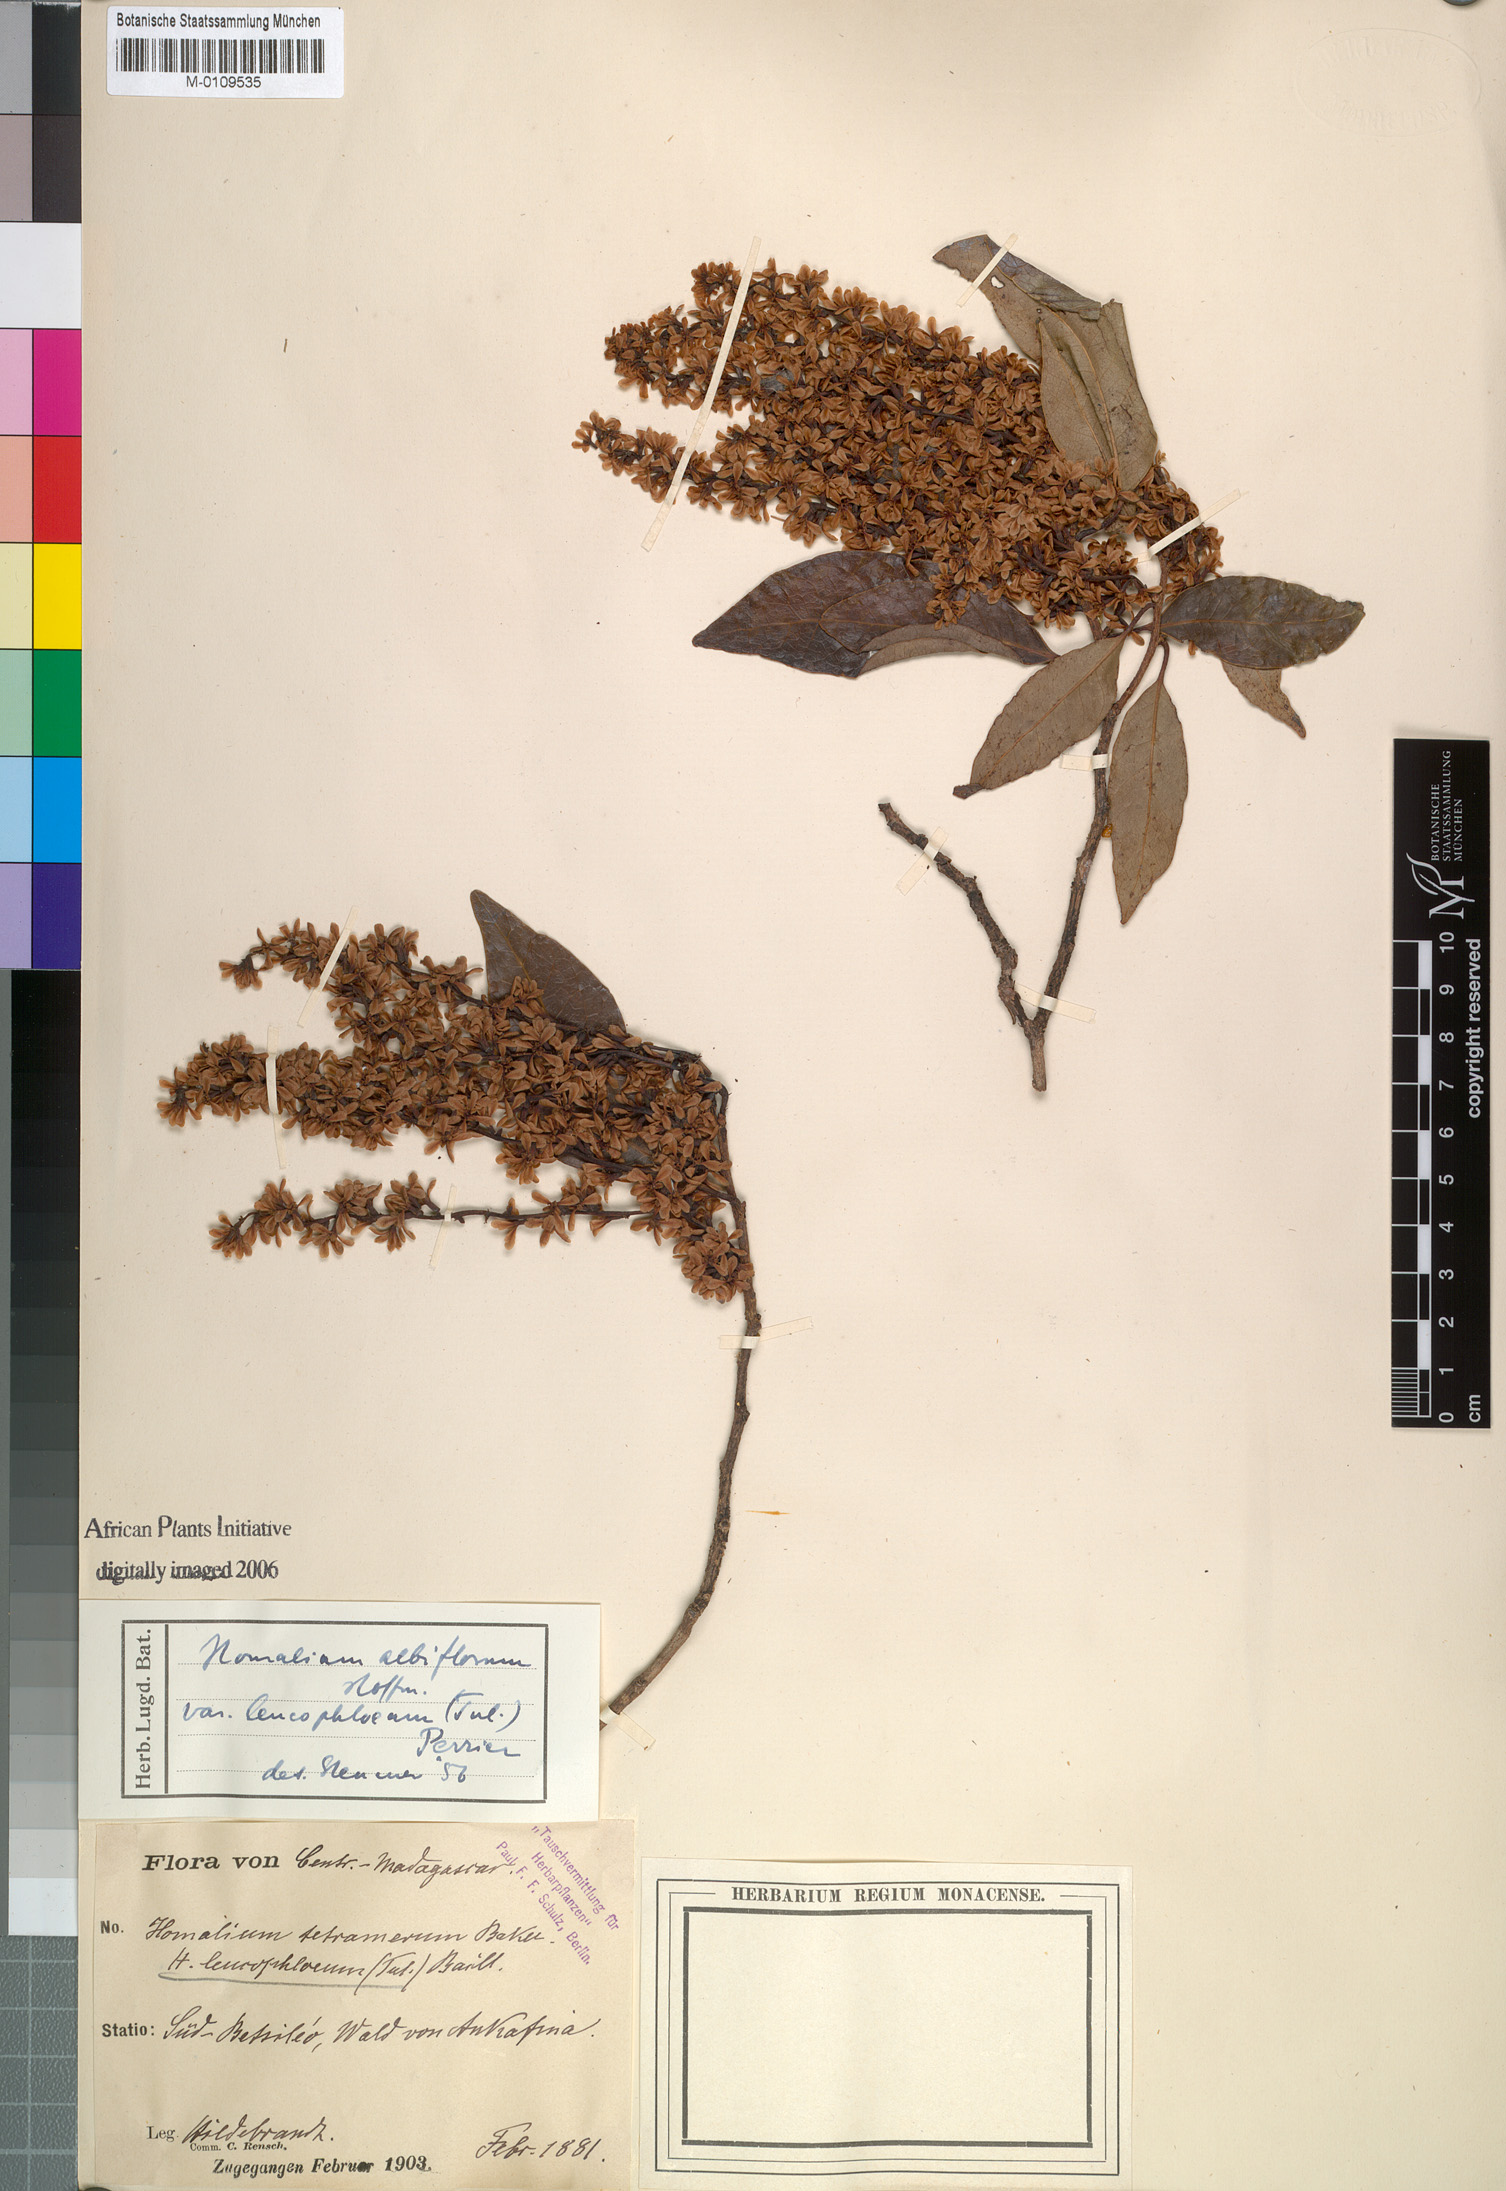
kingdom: Plantae
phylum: Tracheophyta
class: Magnoliopsida
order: Malpighiales
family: Salicaceae
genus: Homalium
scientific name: Homalium leucophloeum
